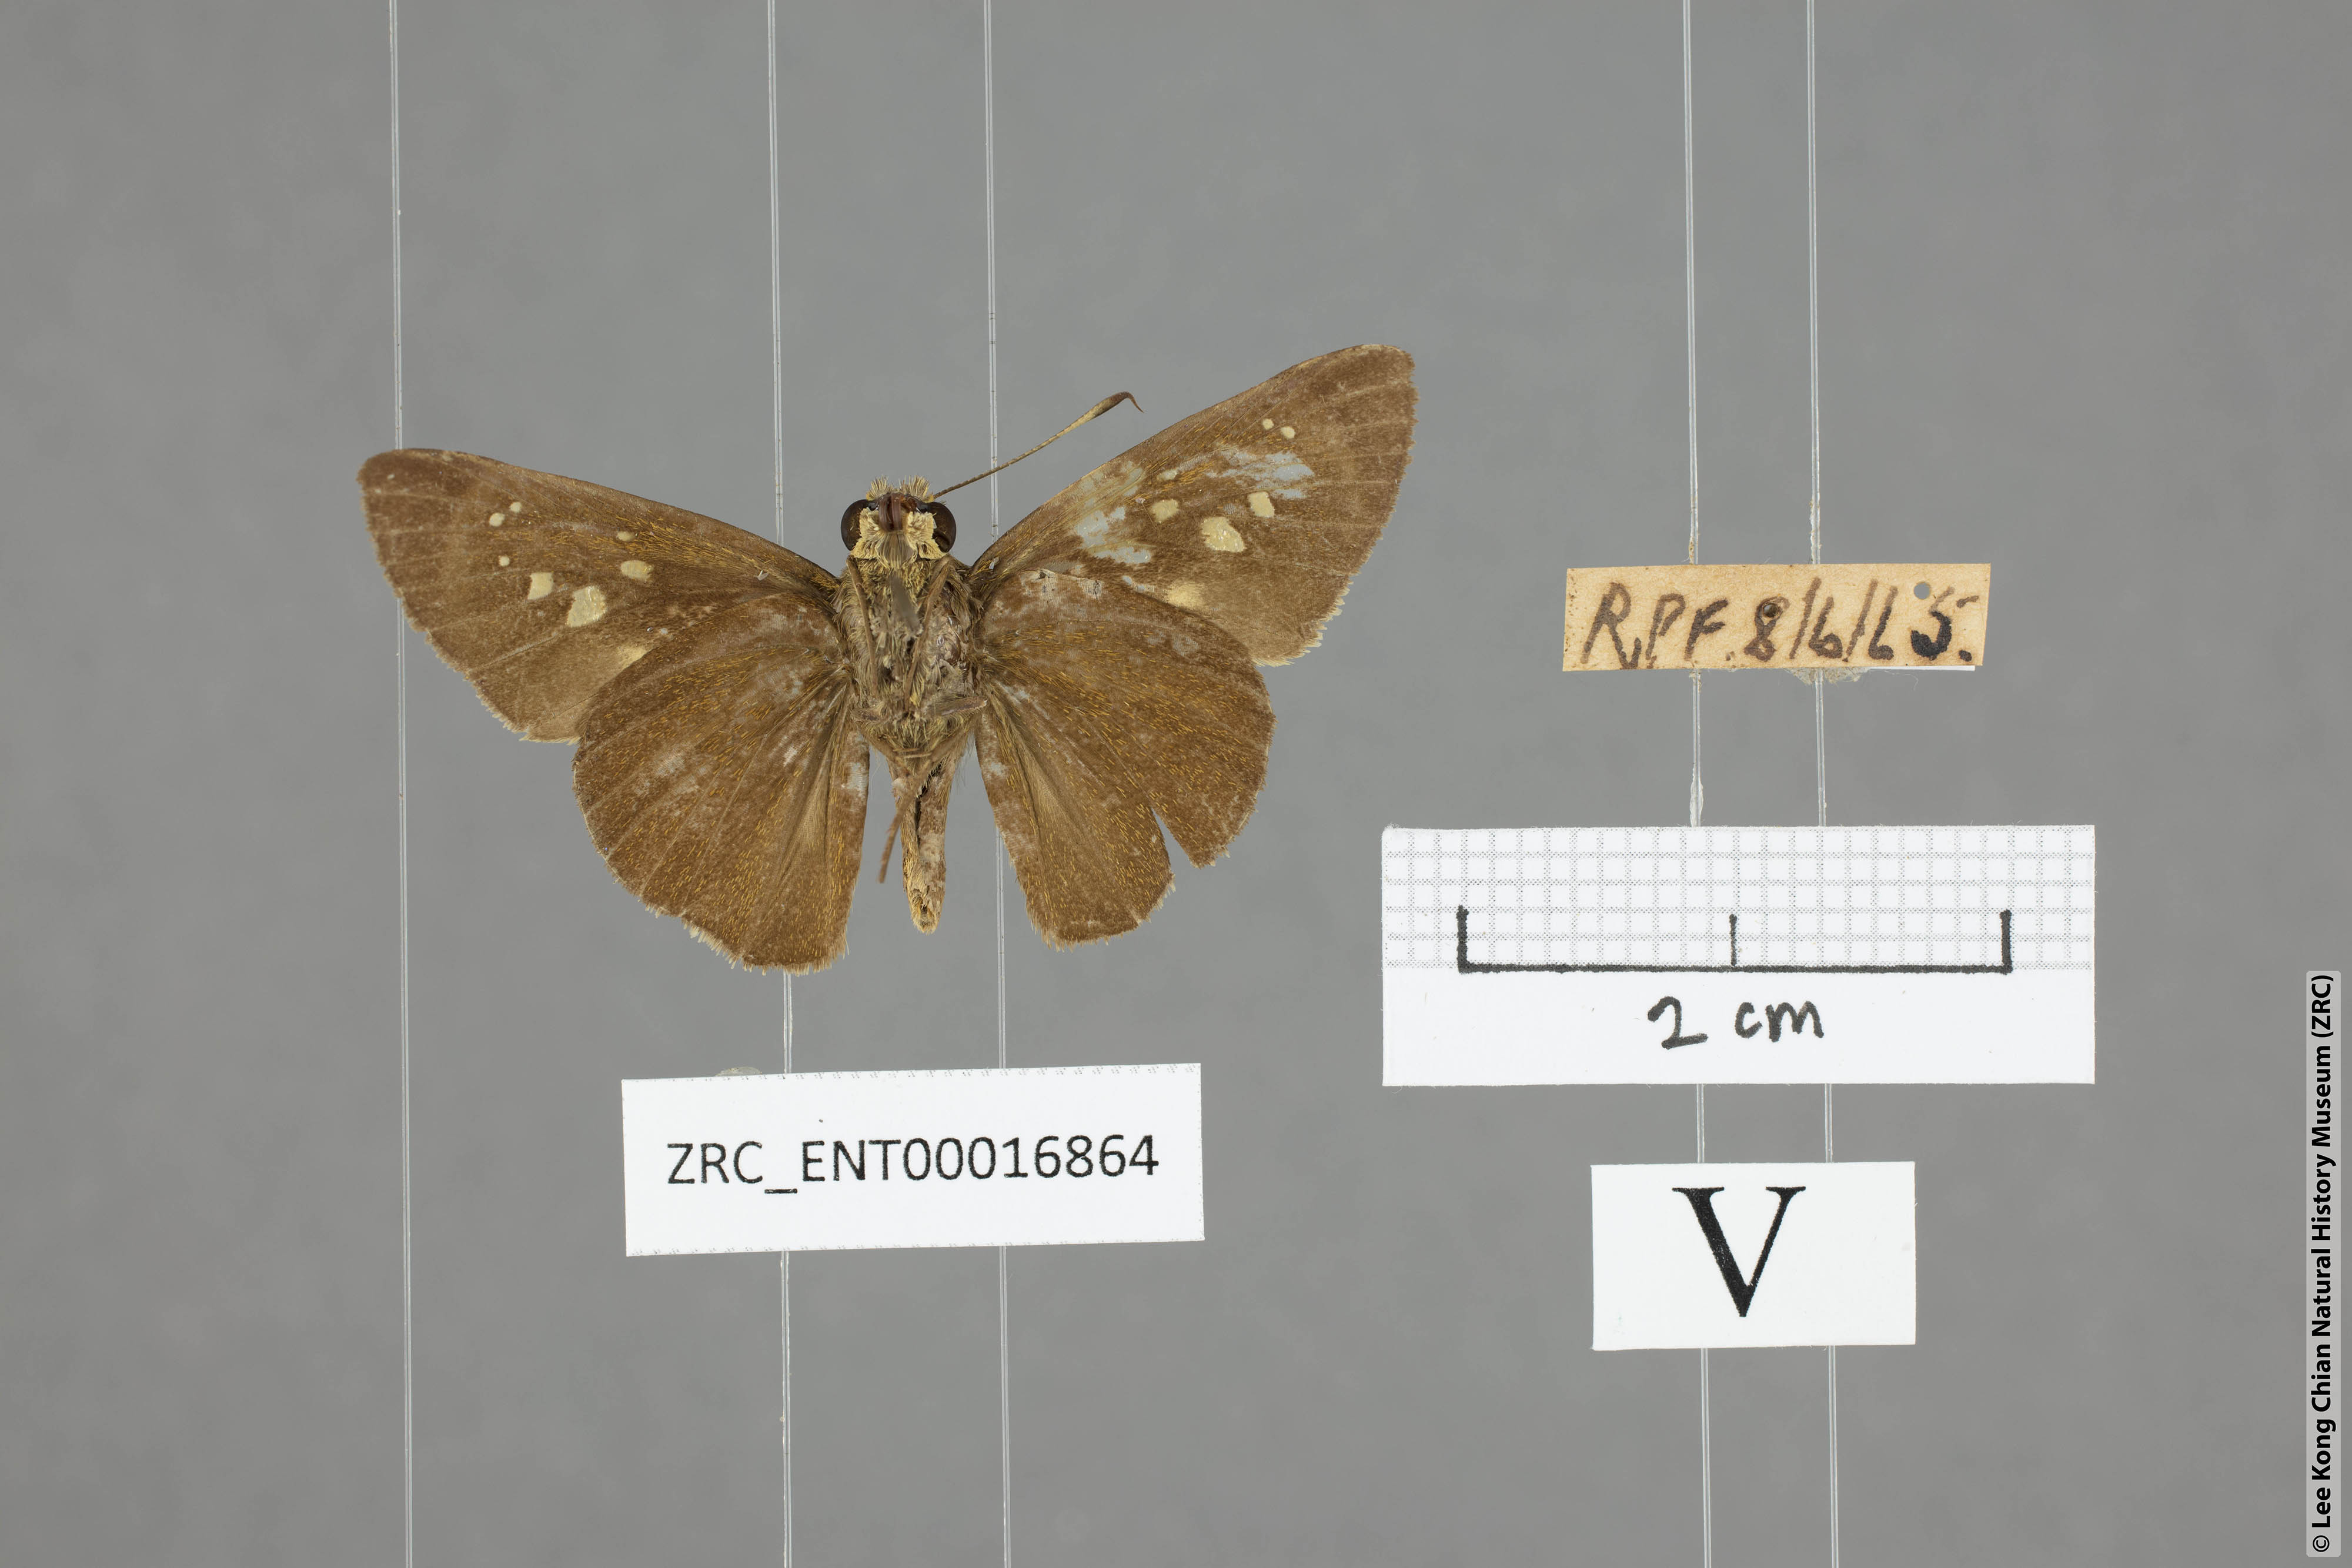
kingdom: Animalia
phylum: Arthropoda
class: Insecta
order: Lepidoptera
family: Hesperiidae
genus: Caltoris
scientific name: Caltoris sirius
